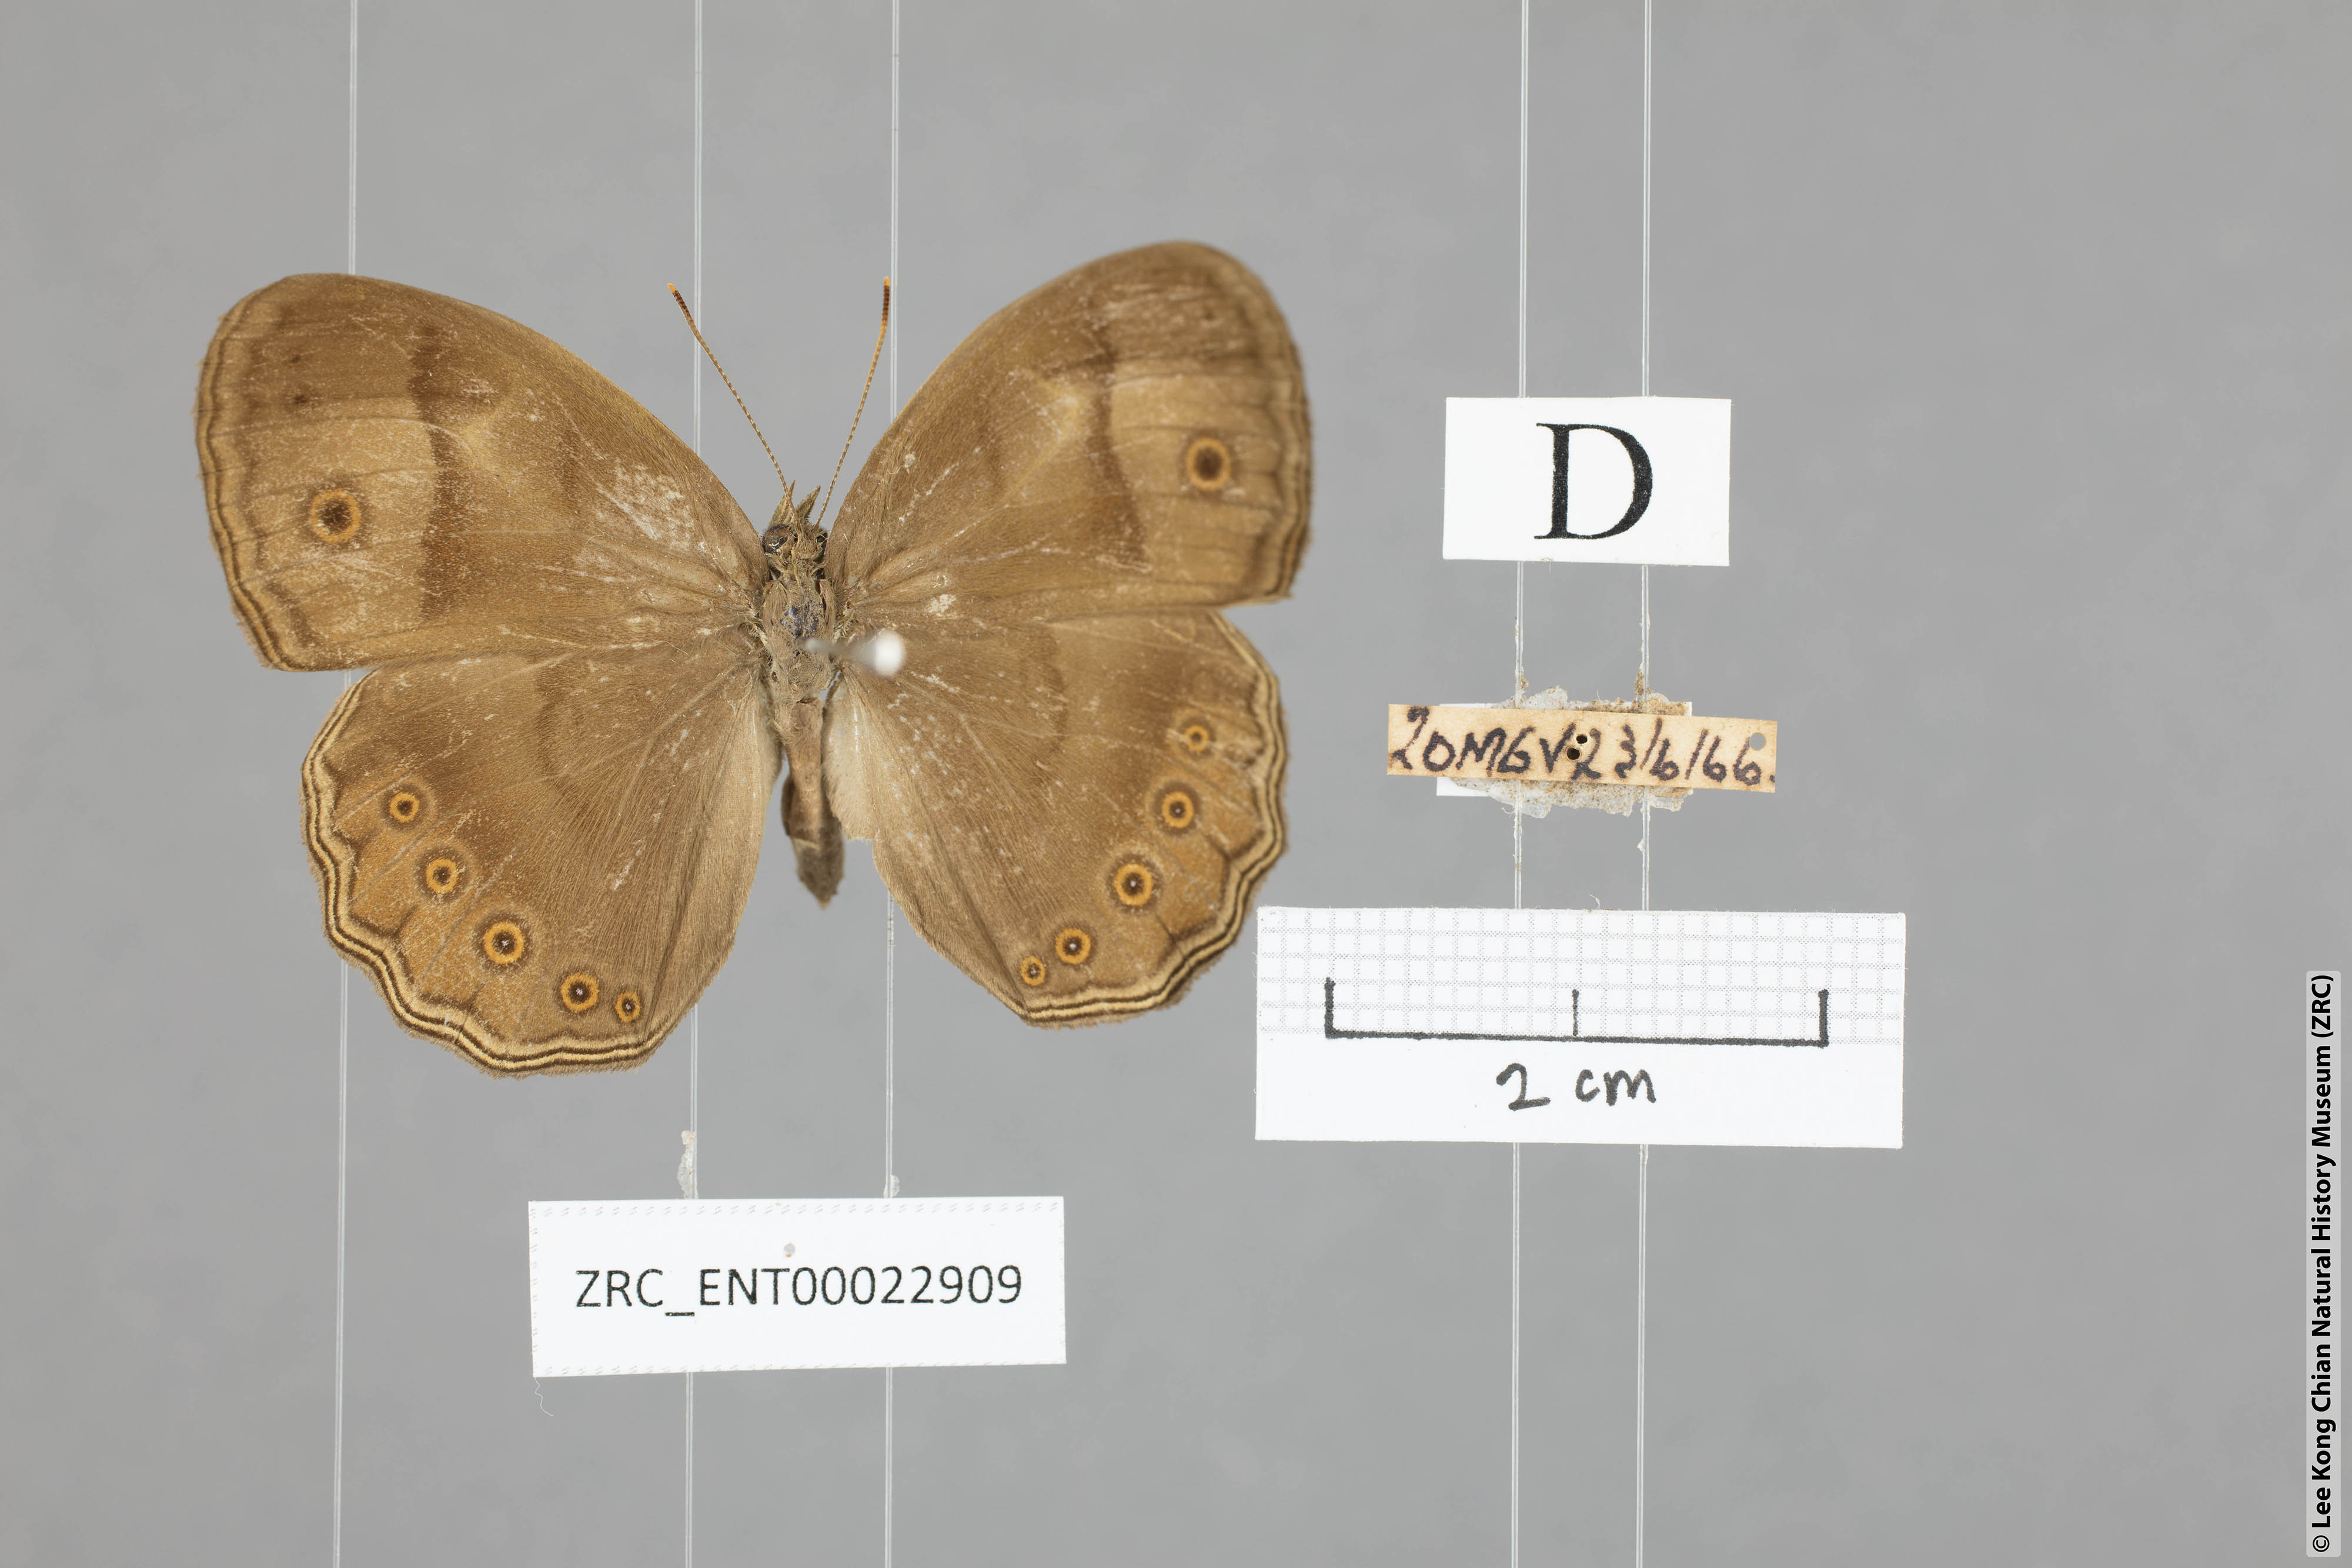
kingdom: Animalia
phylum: Arthropoda
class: Insecta
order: Lepidoptera
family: Nymphalidae
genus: Mycalesis
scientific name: Mycalesis fuscum
